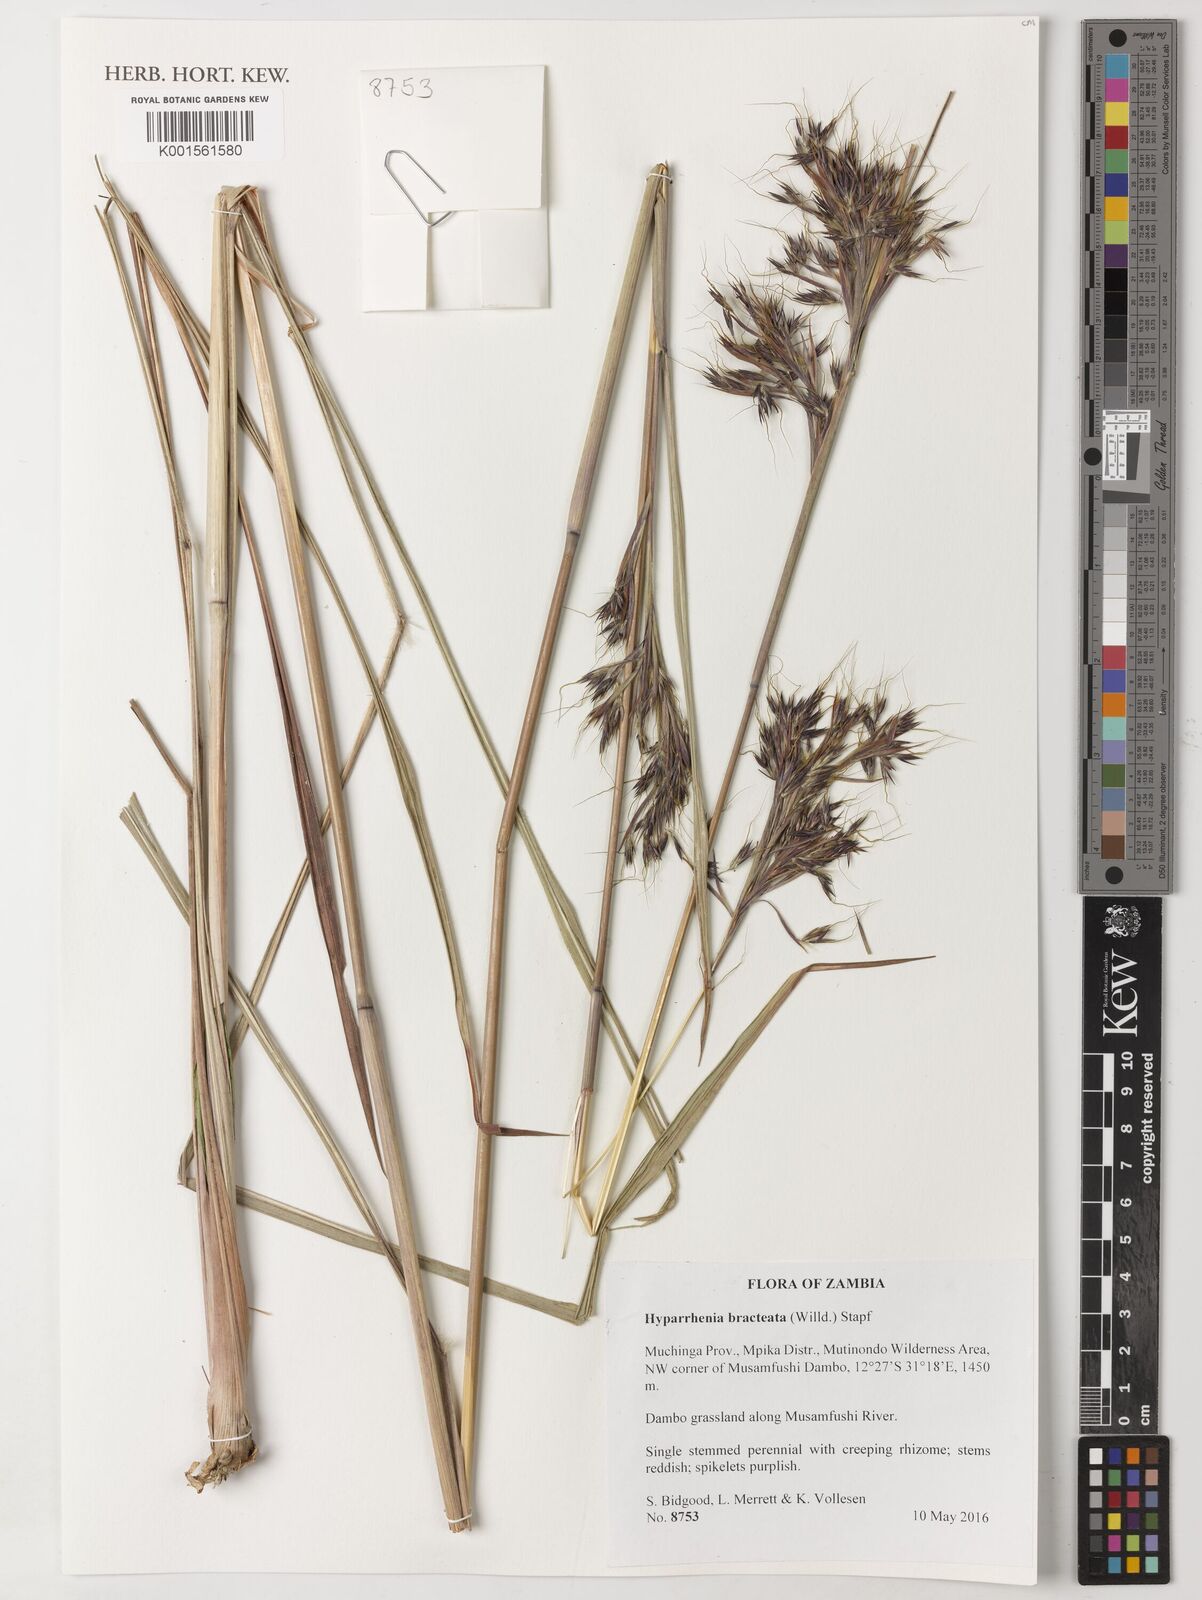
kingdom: Plantae
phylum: Tracheophyta
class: Liliopsida
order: Poales
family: Poaceae
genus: Hyparrhenia
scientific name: Hyparrhenia bracteata
